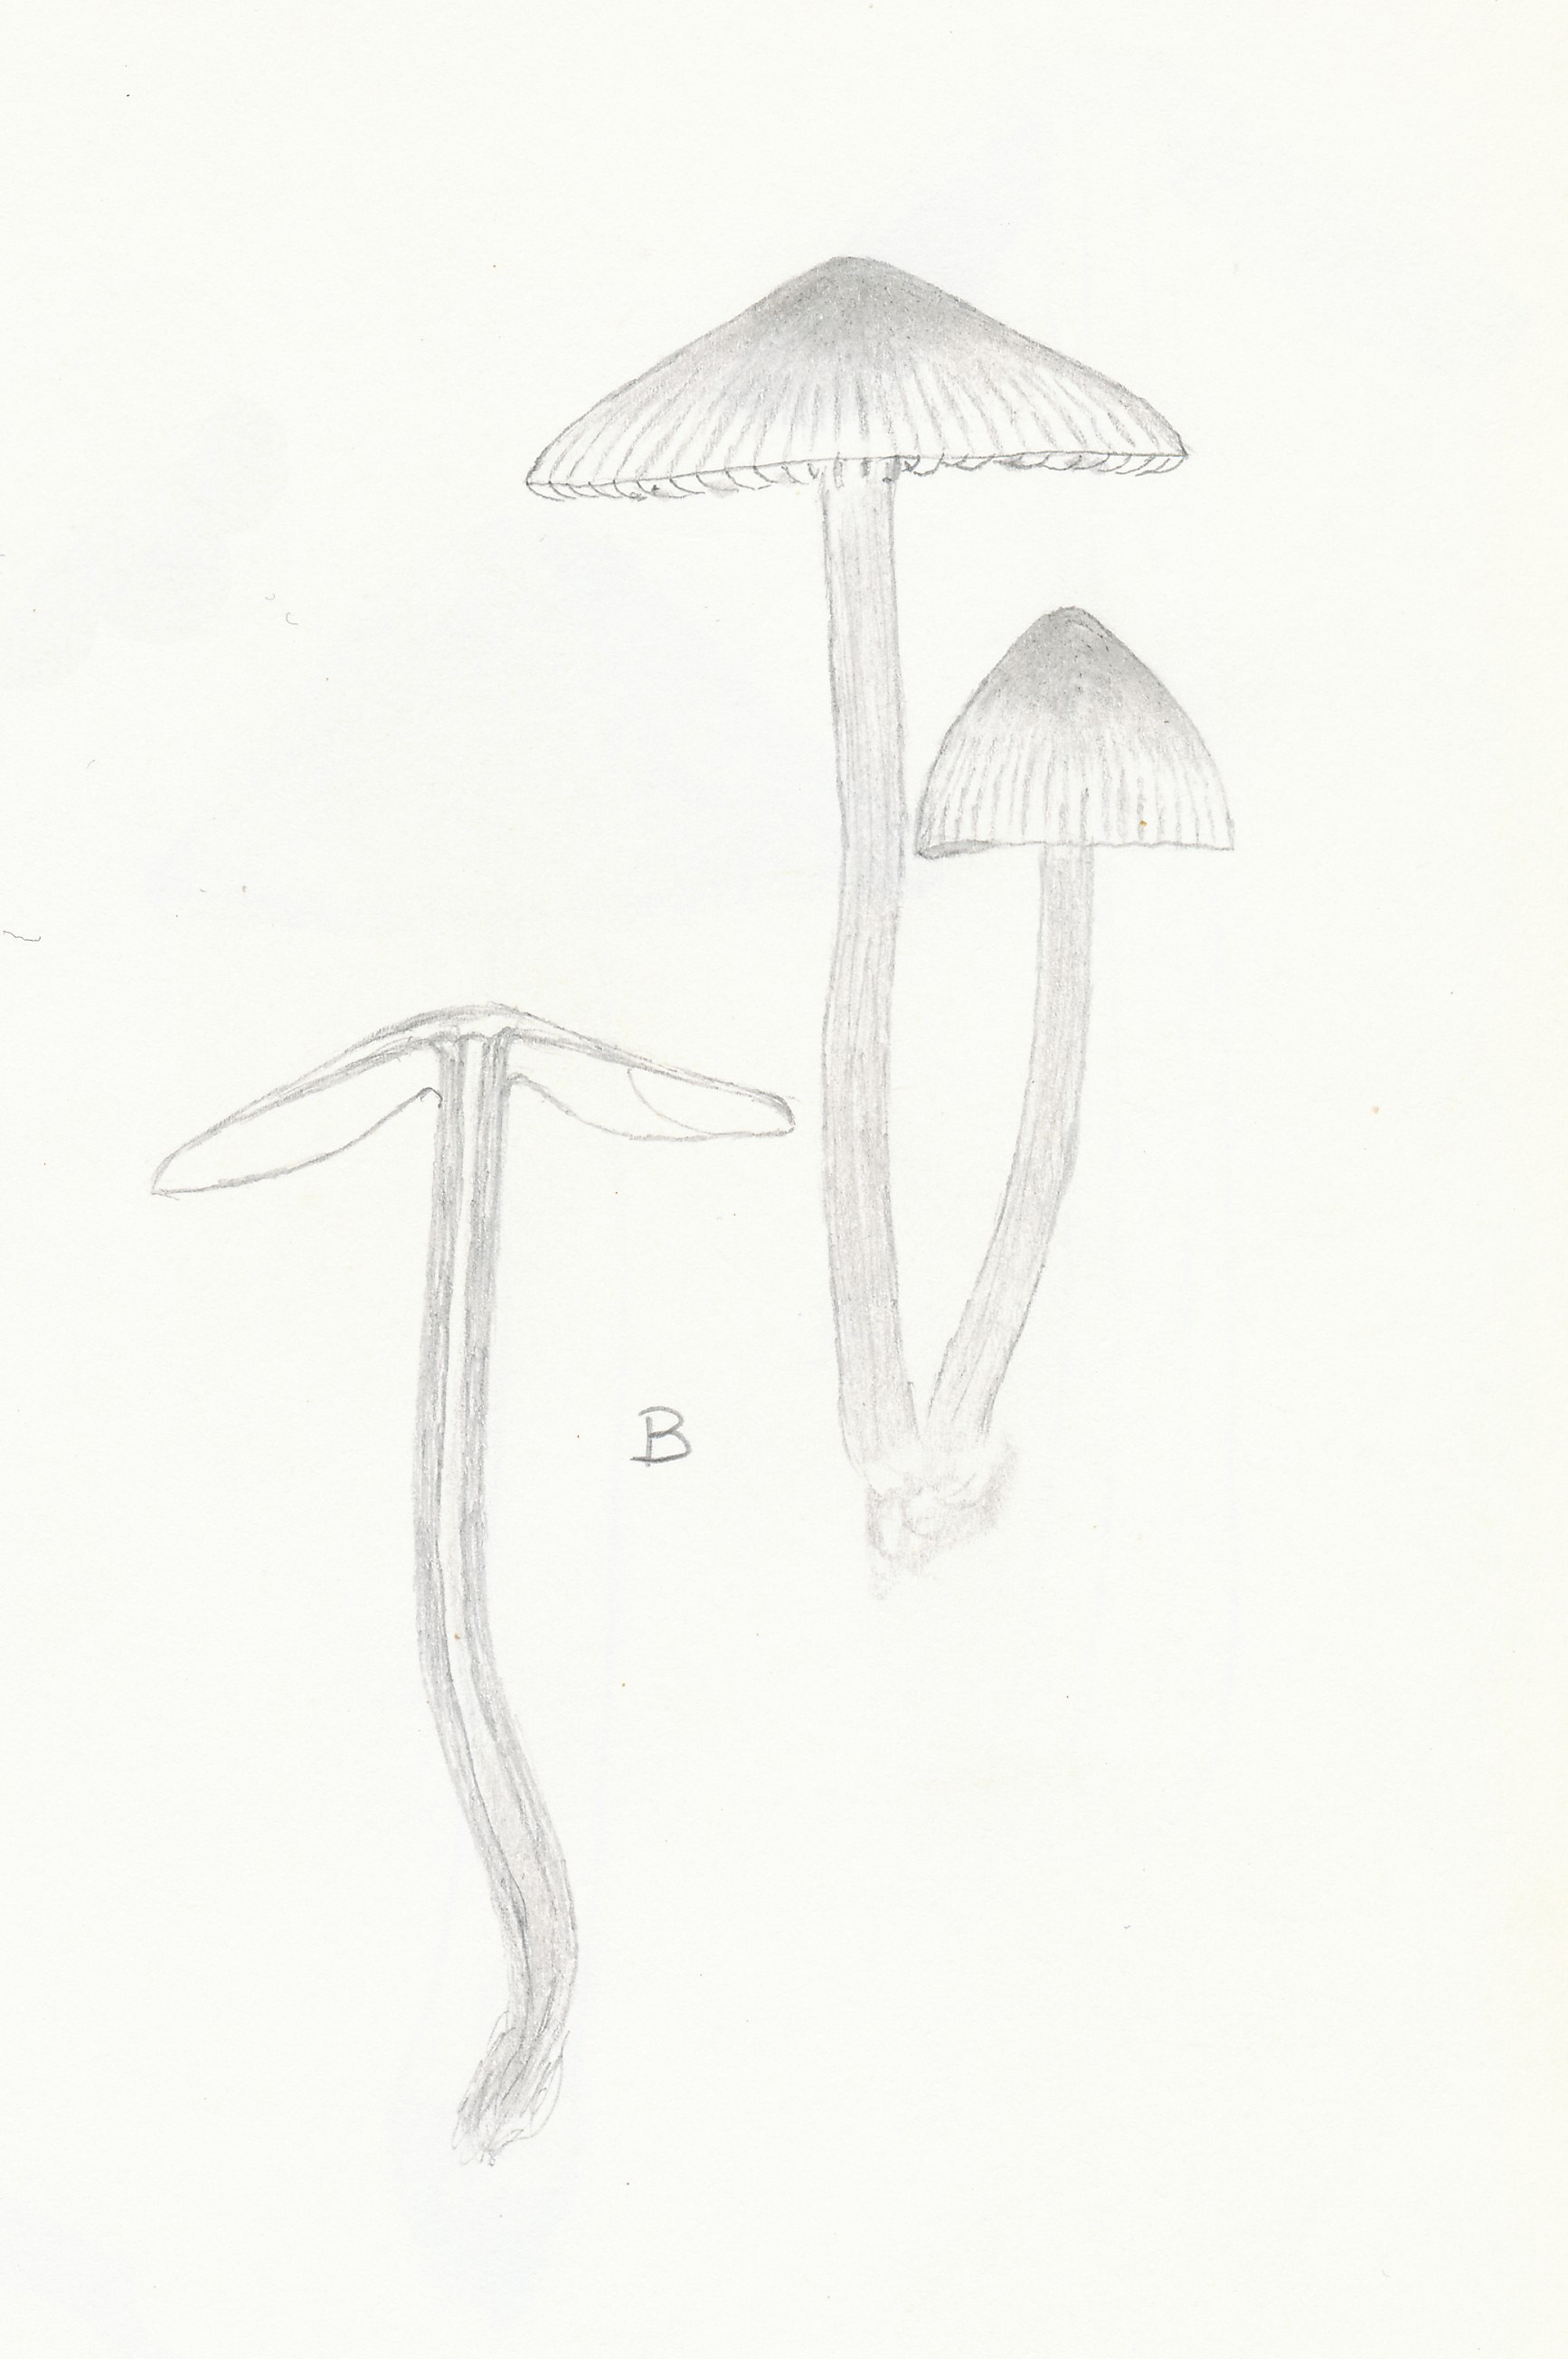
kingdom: Fungi
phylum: Basidiomycota
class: Agaricomycetes
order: Agaricales
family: Mycenaceae
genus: Mycena
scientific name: Mycena haematopus
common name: blødende huesvamp
